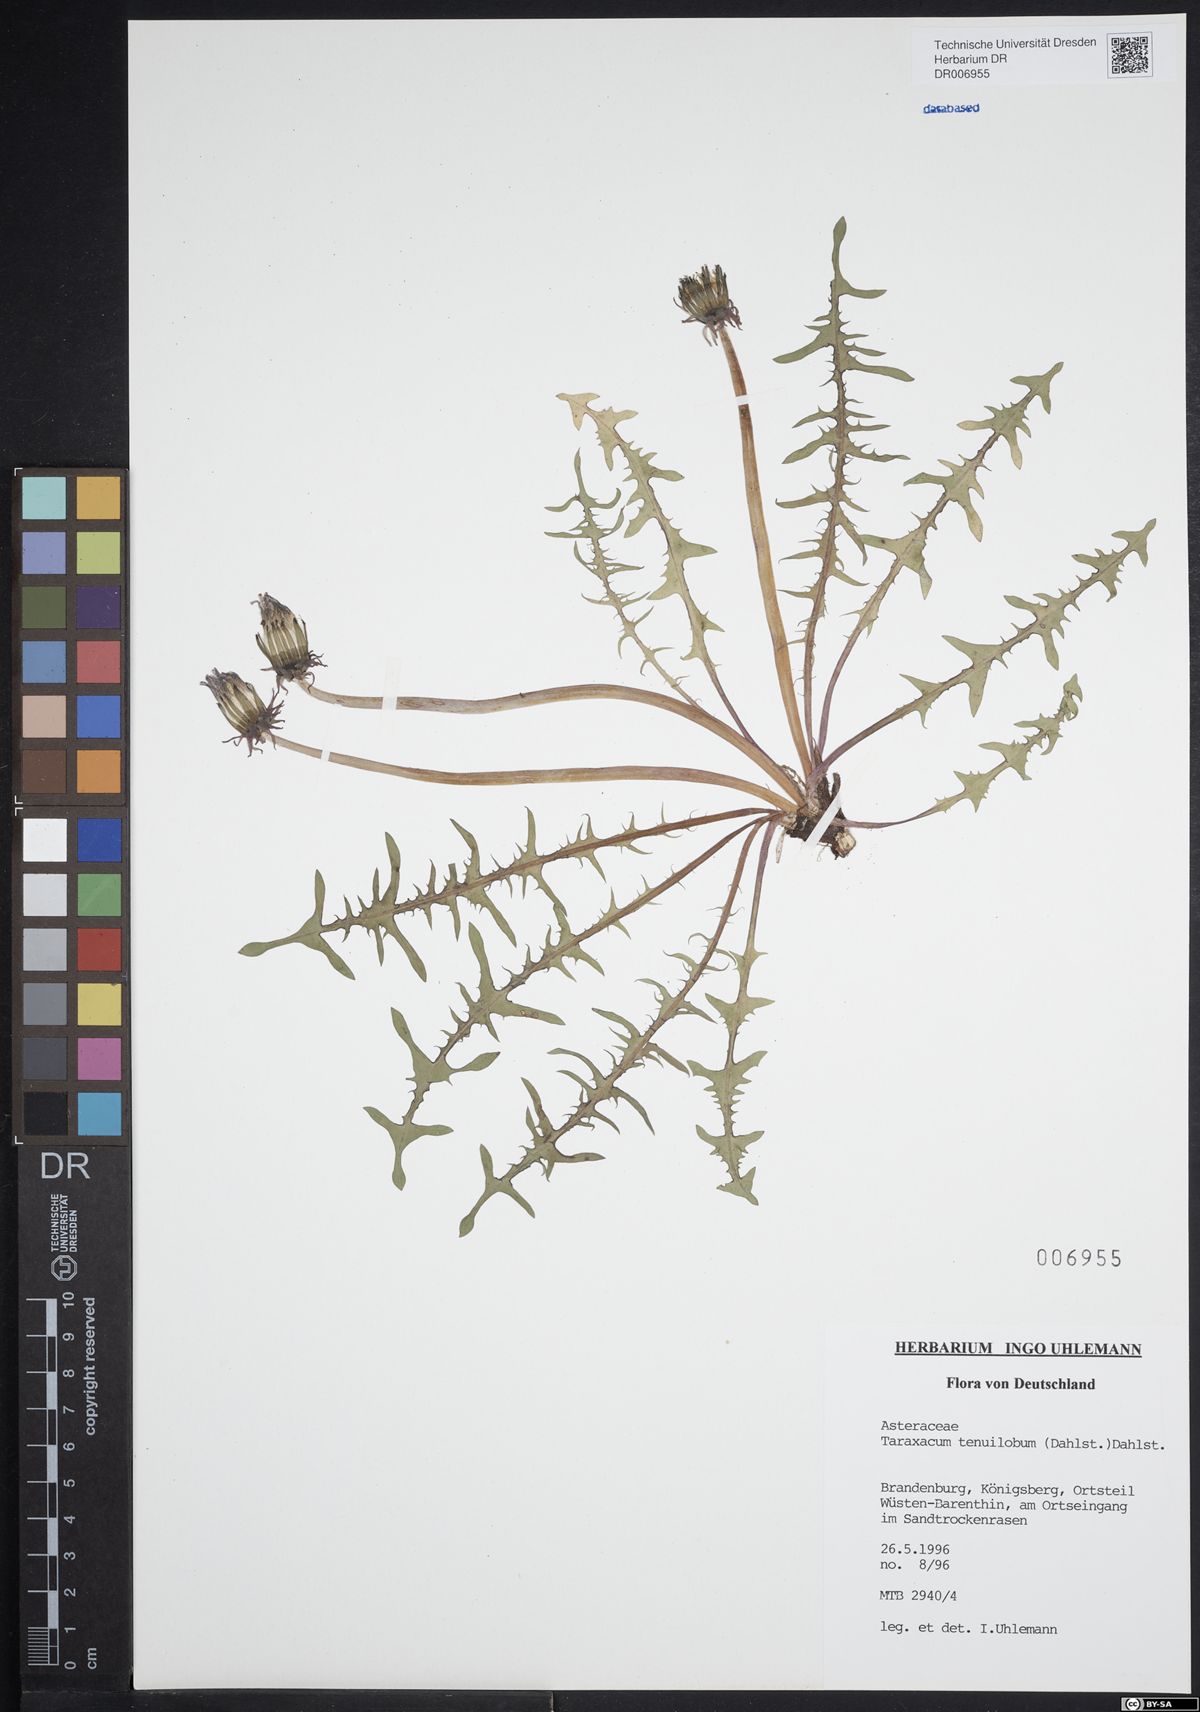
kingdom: Plantae
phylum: Tracheophyta
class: Magnoliopsida
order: Asterales
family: Asteraceae
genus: Taraxacum
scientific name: Taraxacum tenuilobum
